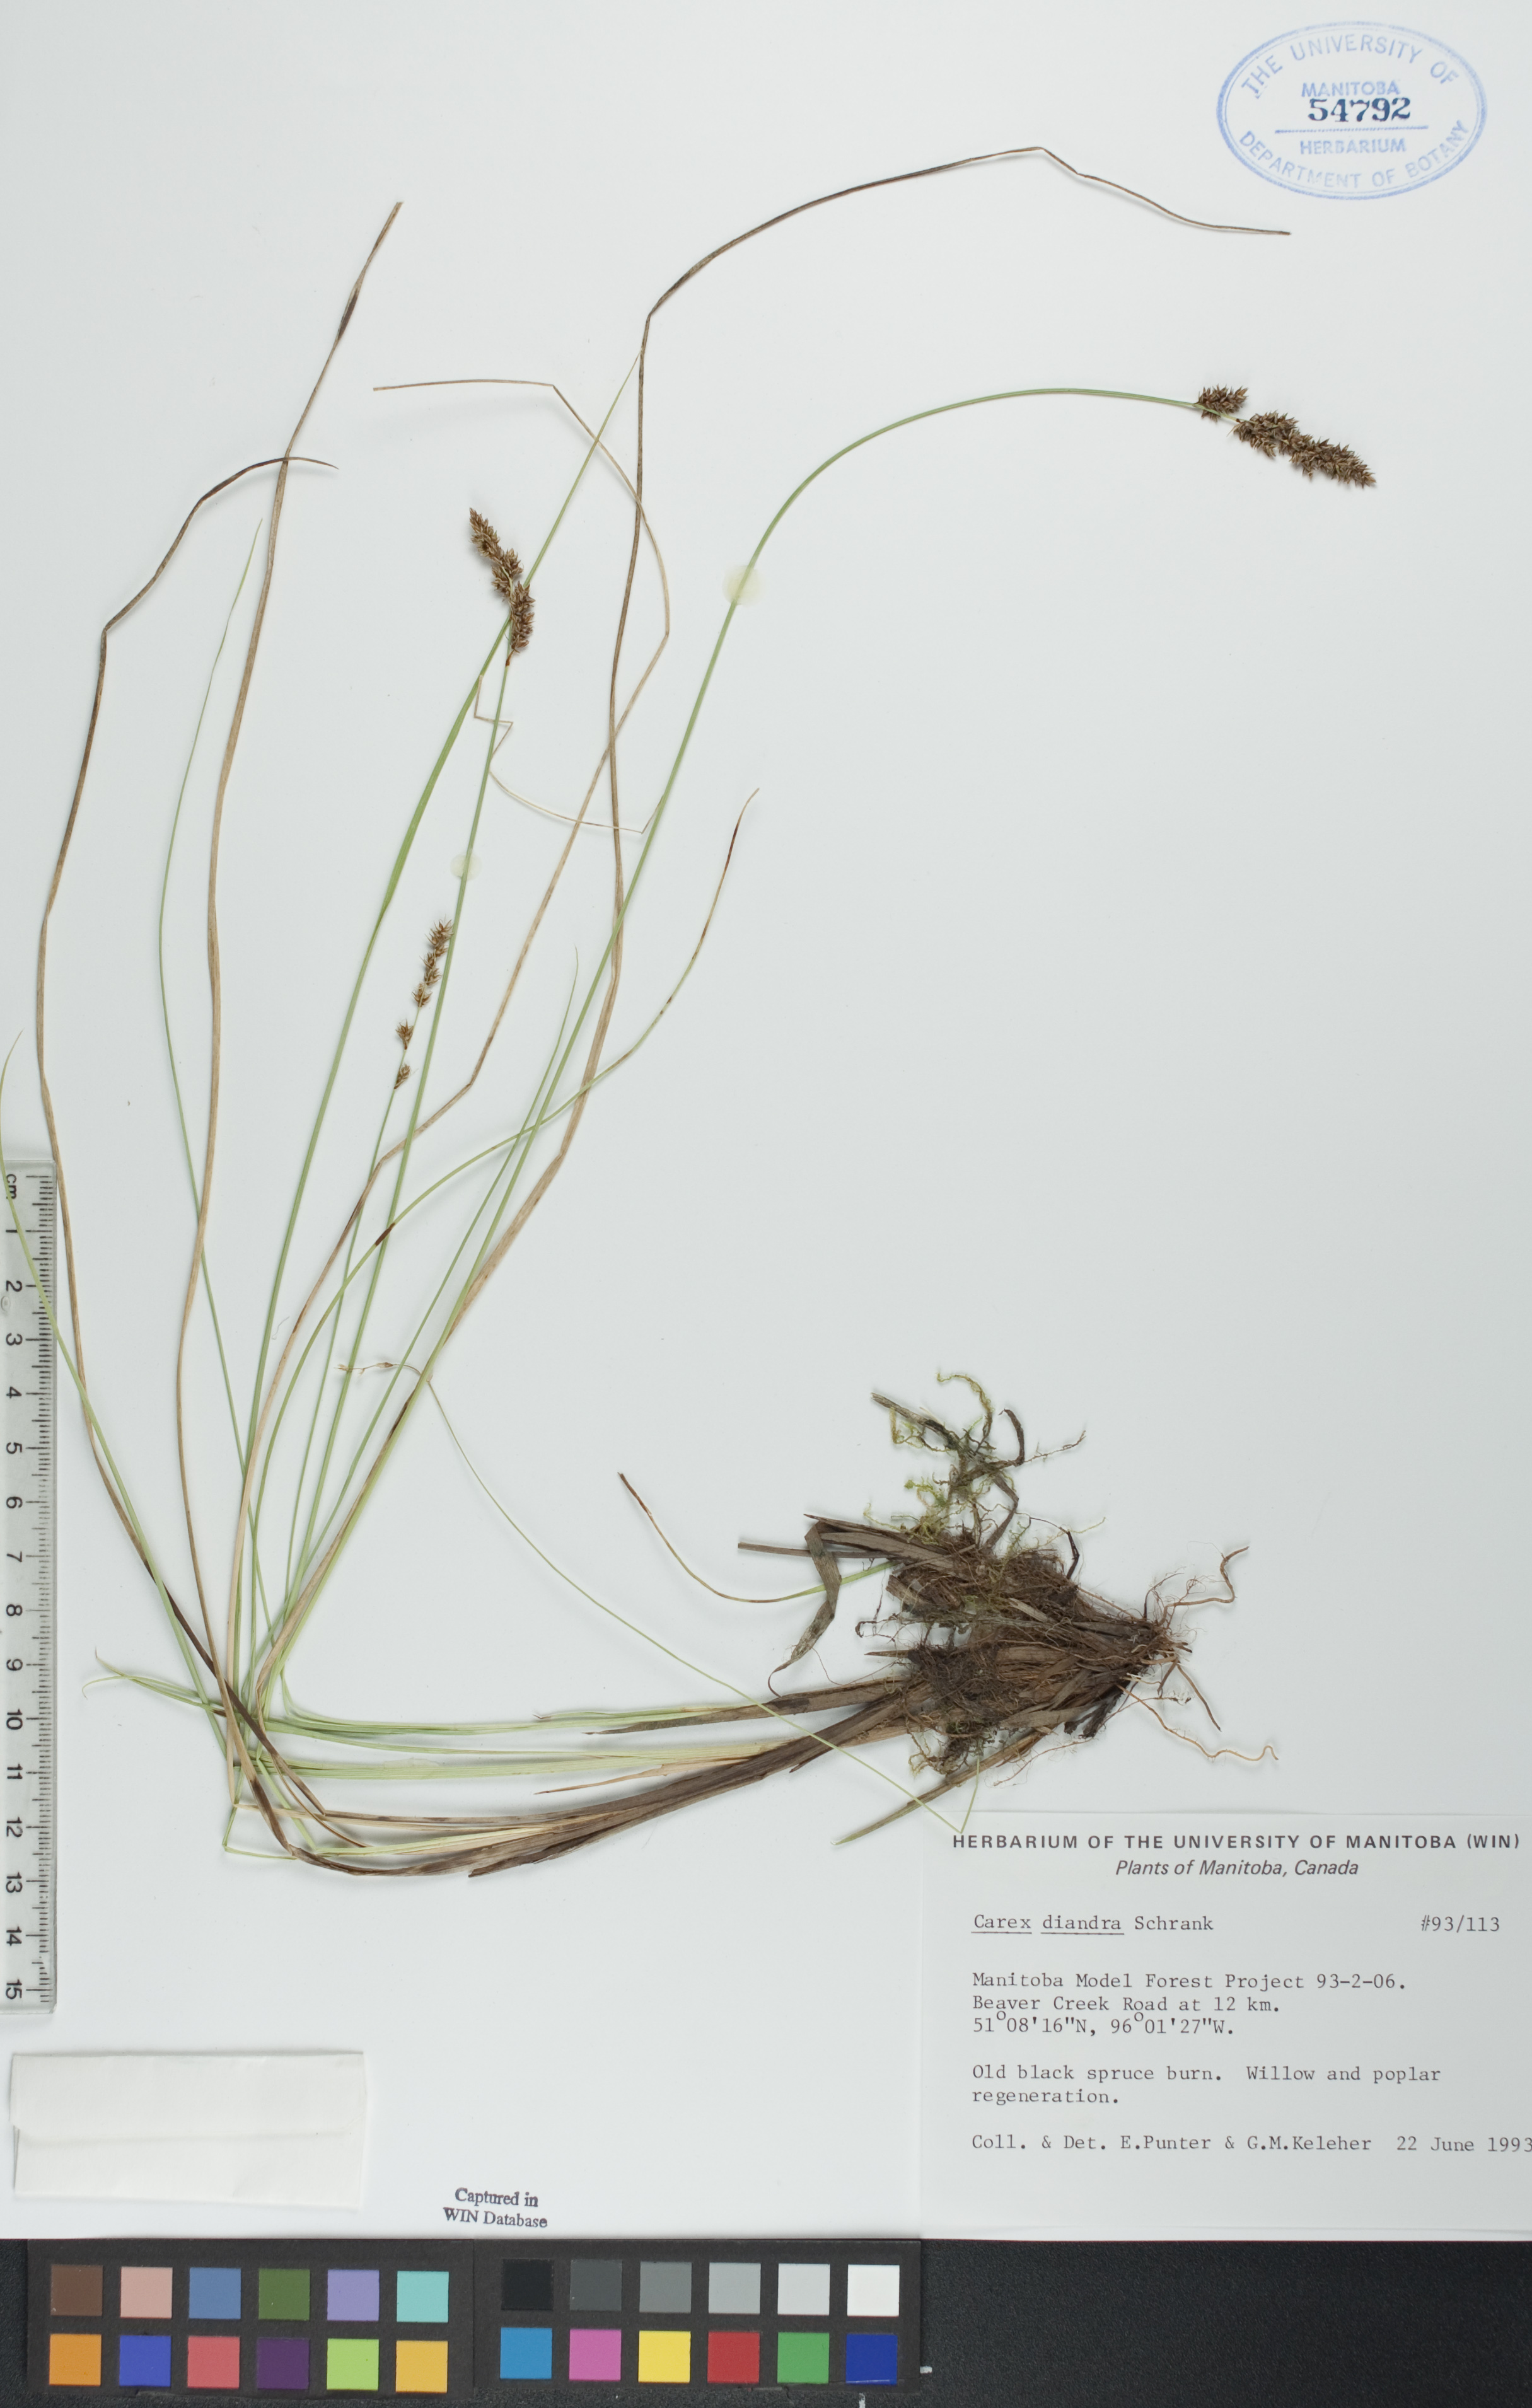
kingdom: Plantae
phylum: Tracheophyta
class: Liliopsida
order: Poales
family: Cyperaceae
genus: Carex
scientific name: Carex diandra
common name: Lesser tussock-sedge
